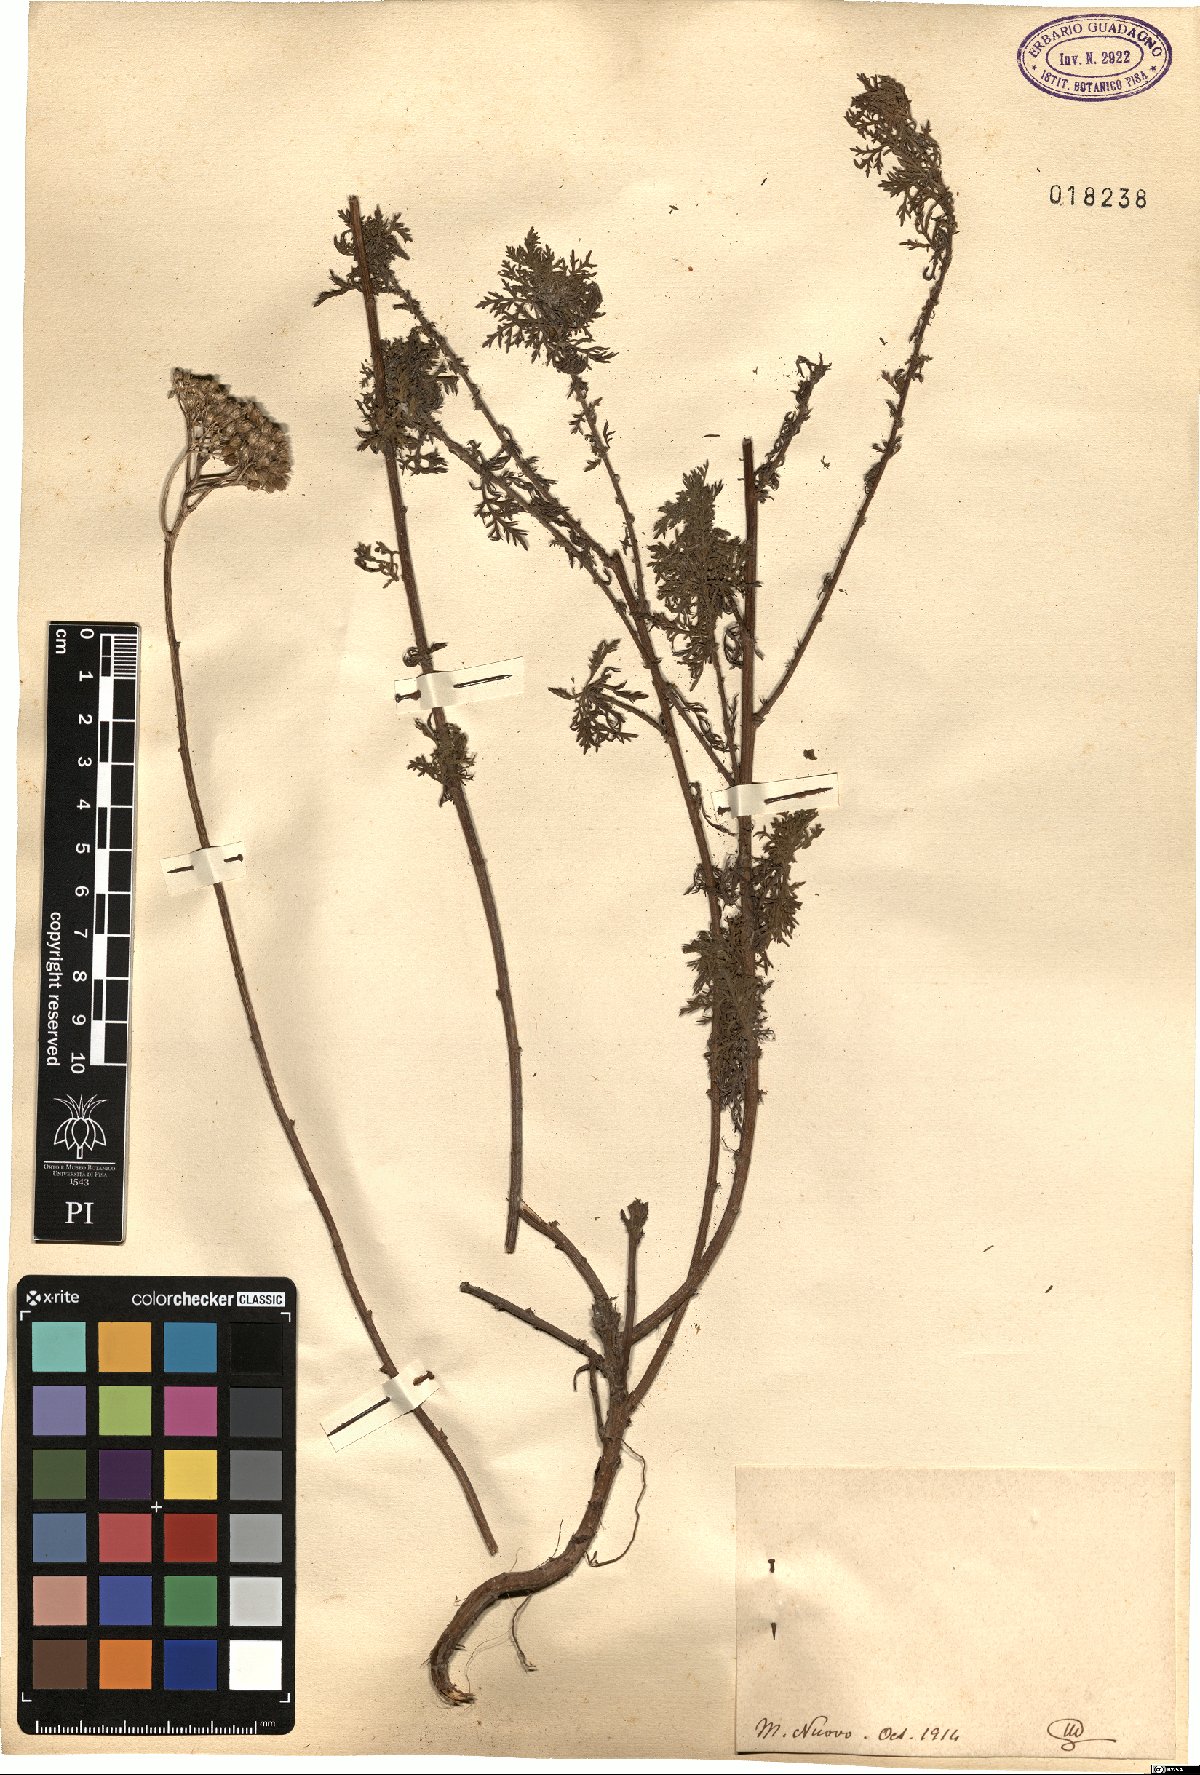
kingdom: Plantae
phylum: Tracheophyta
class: Magnoliopsida
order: Asterales
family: Asteraceae
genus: Achillea
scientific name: Achillea
